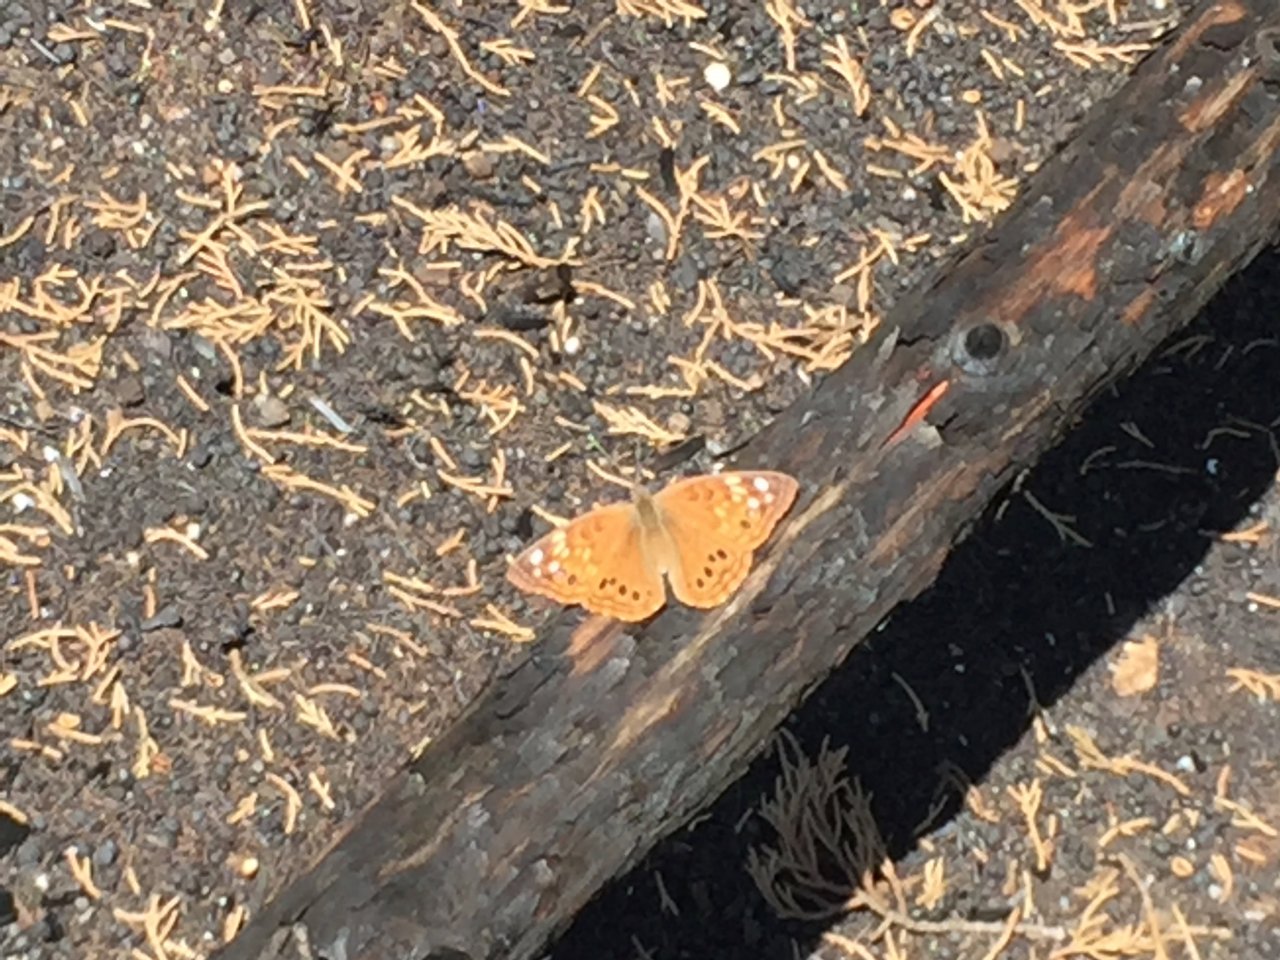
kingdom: Animalia
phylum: Arthropoda
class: Insecta
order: Lepidoptera
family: Nymphalidae
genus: Asterocampa
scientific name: Asterocampa celtis
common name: Hackberry Emperor
